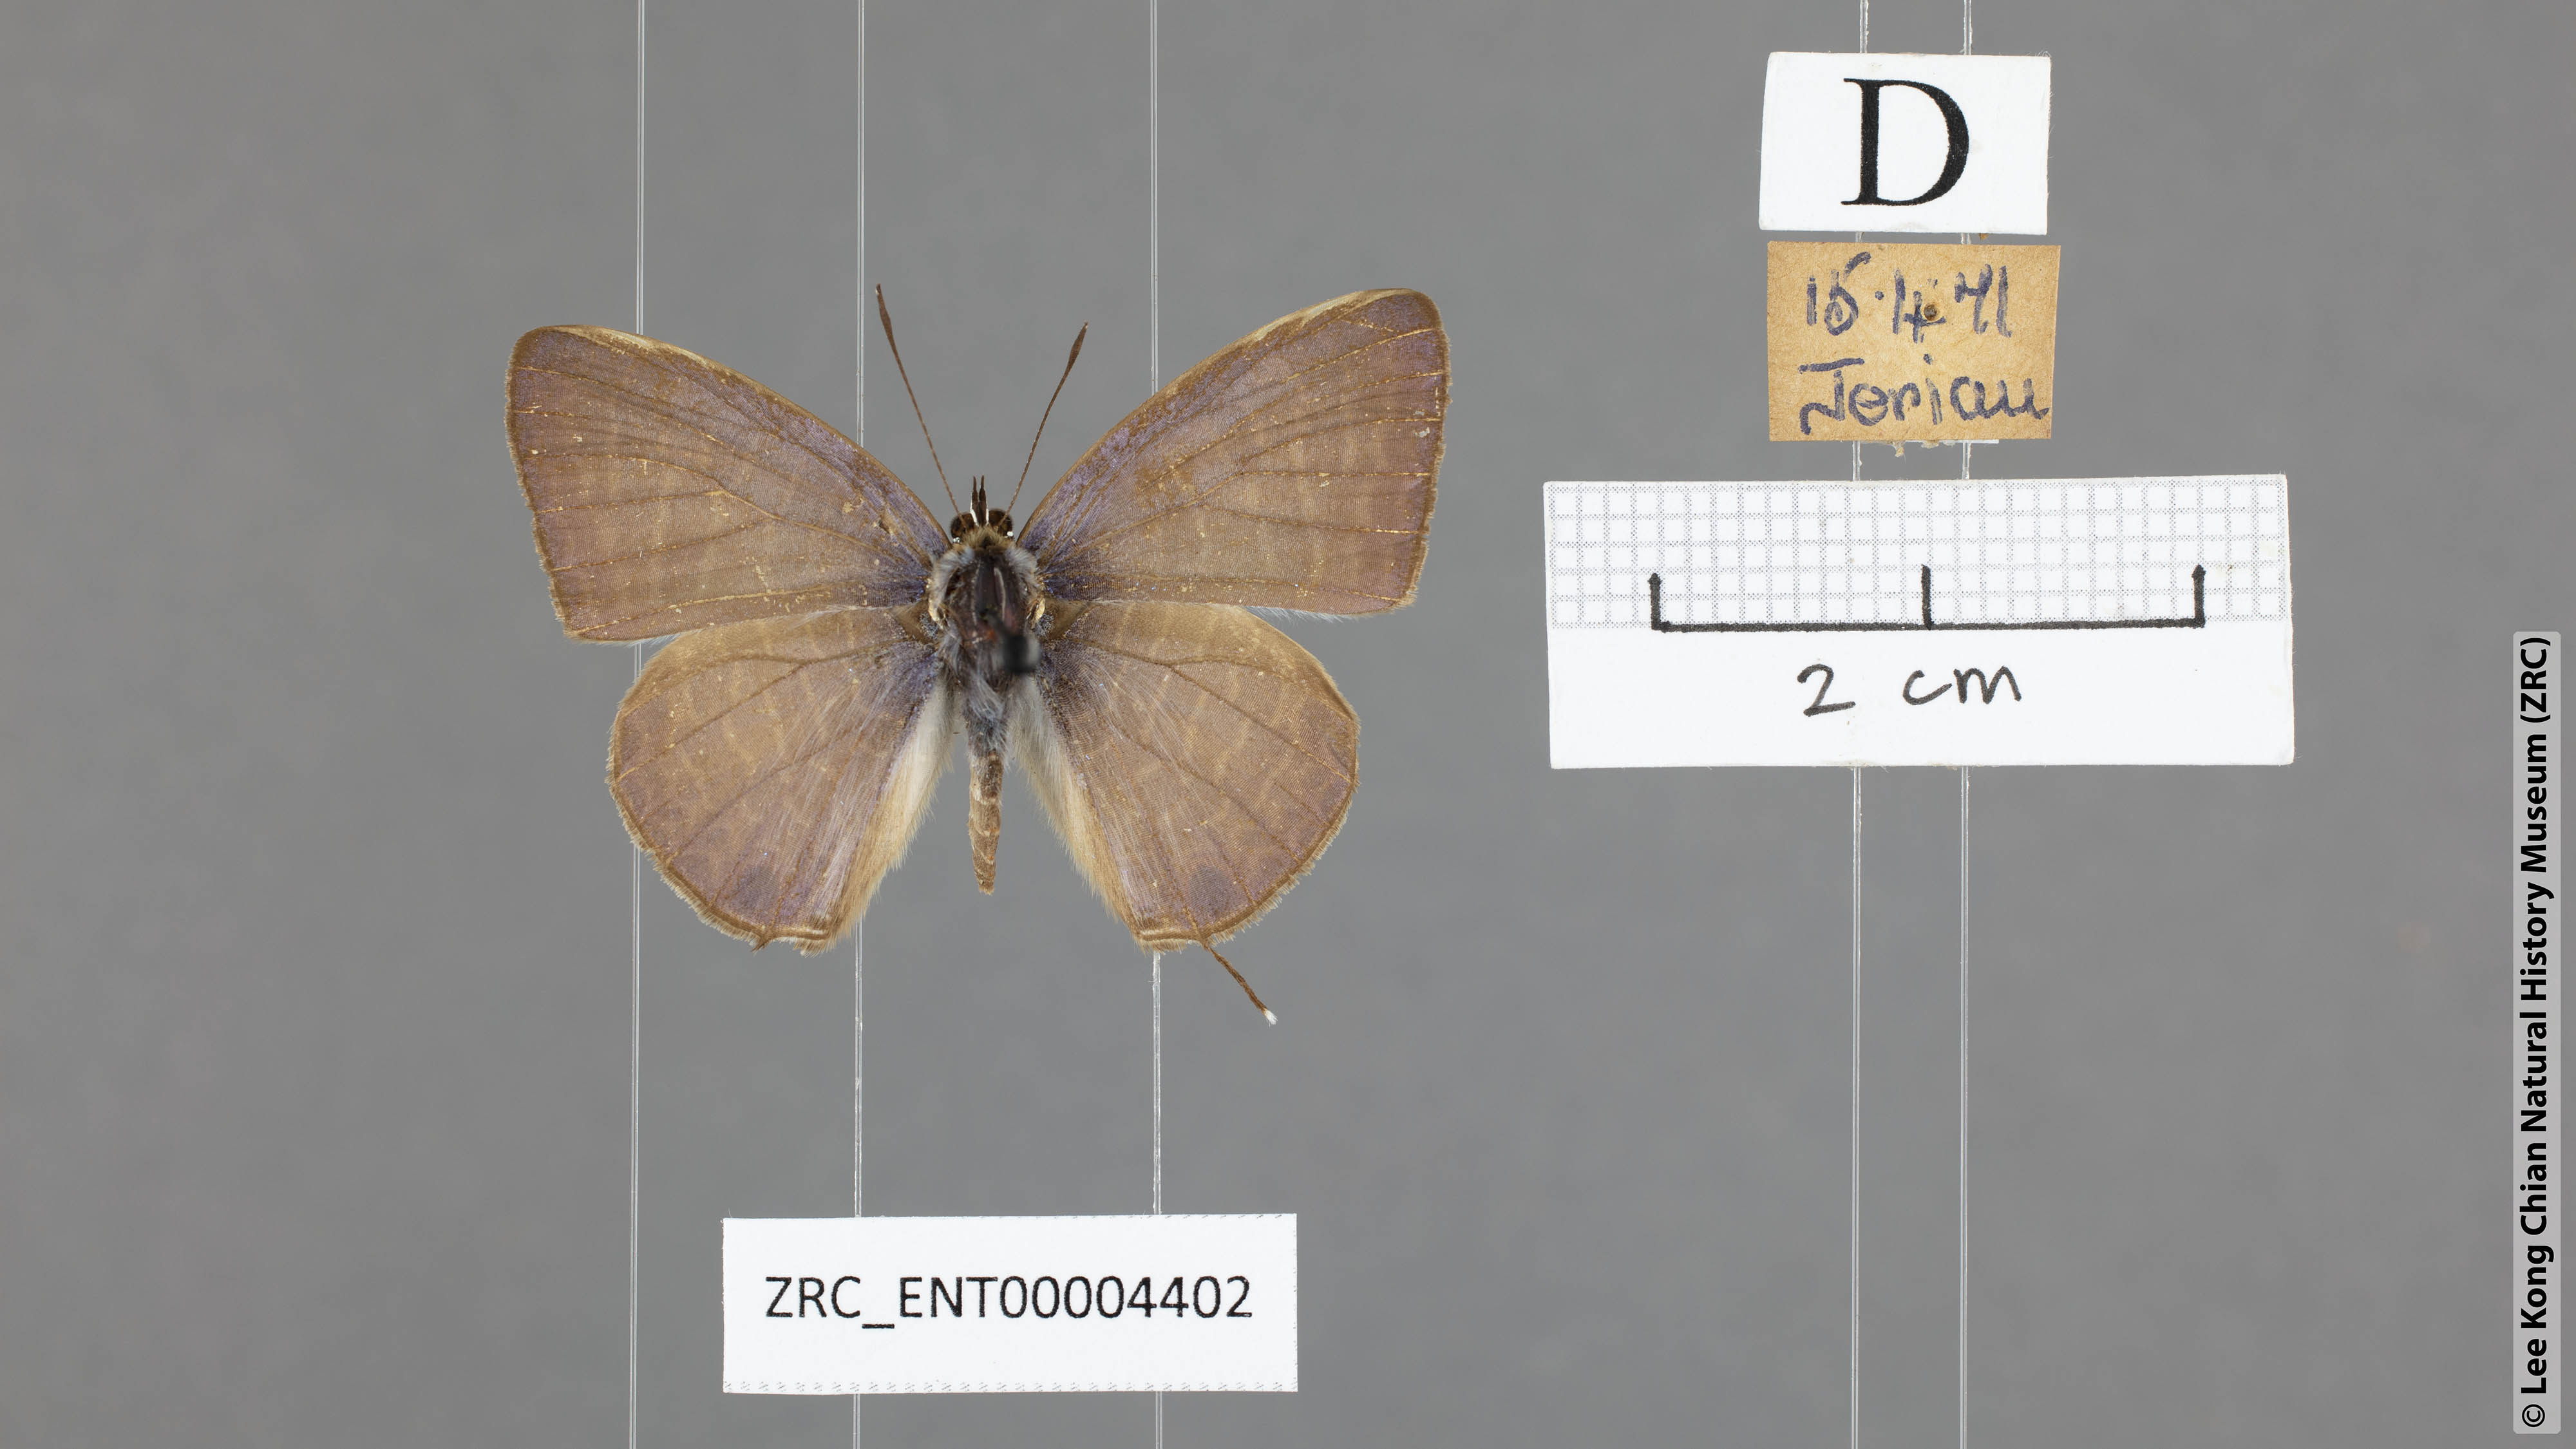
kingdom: Animalia
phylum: Arthropoda
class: Insecta
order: Lepidoptera
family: Lycaenidae
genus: Nacaduba
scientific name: Nacaduba kurava
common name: Transparent 6-line blue
